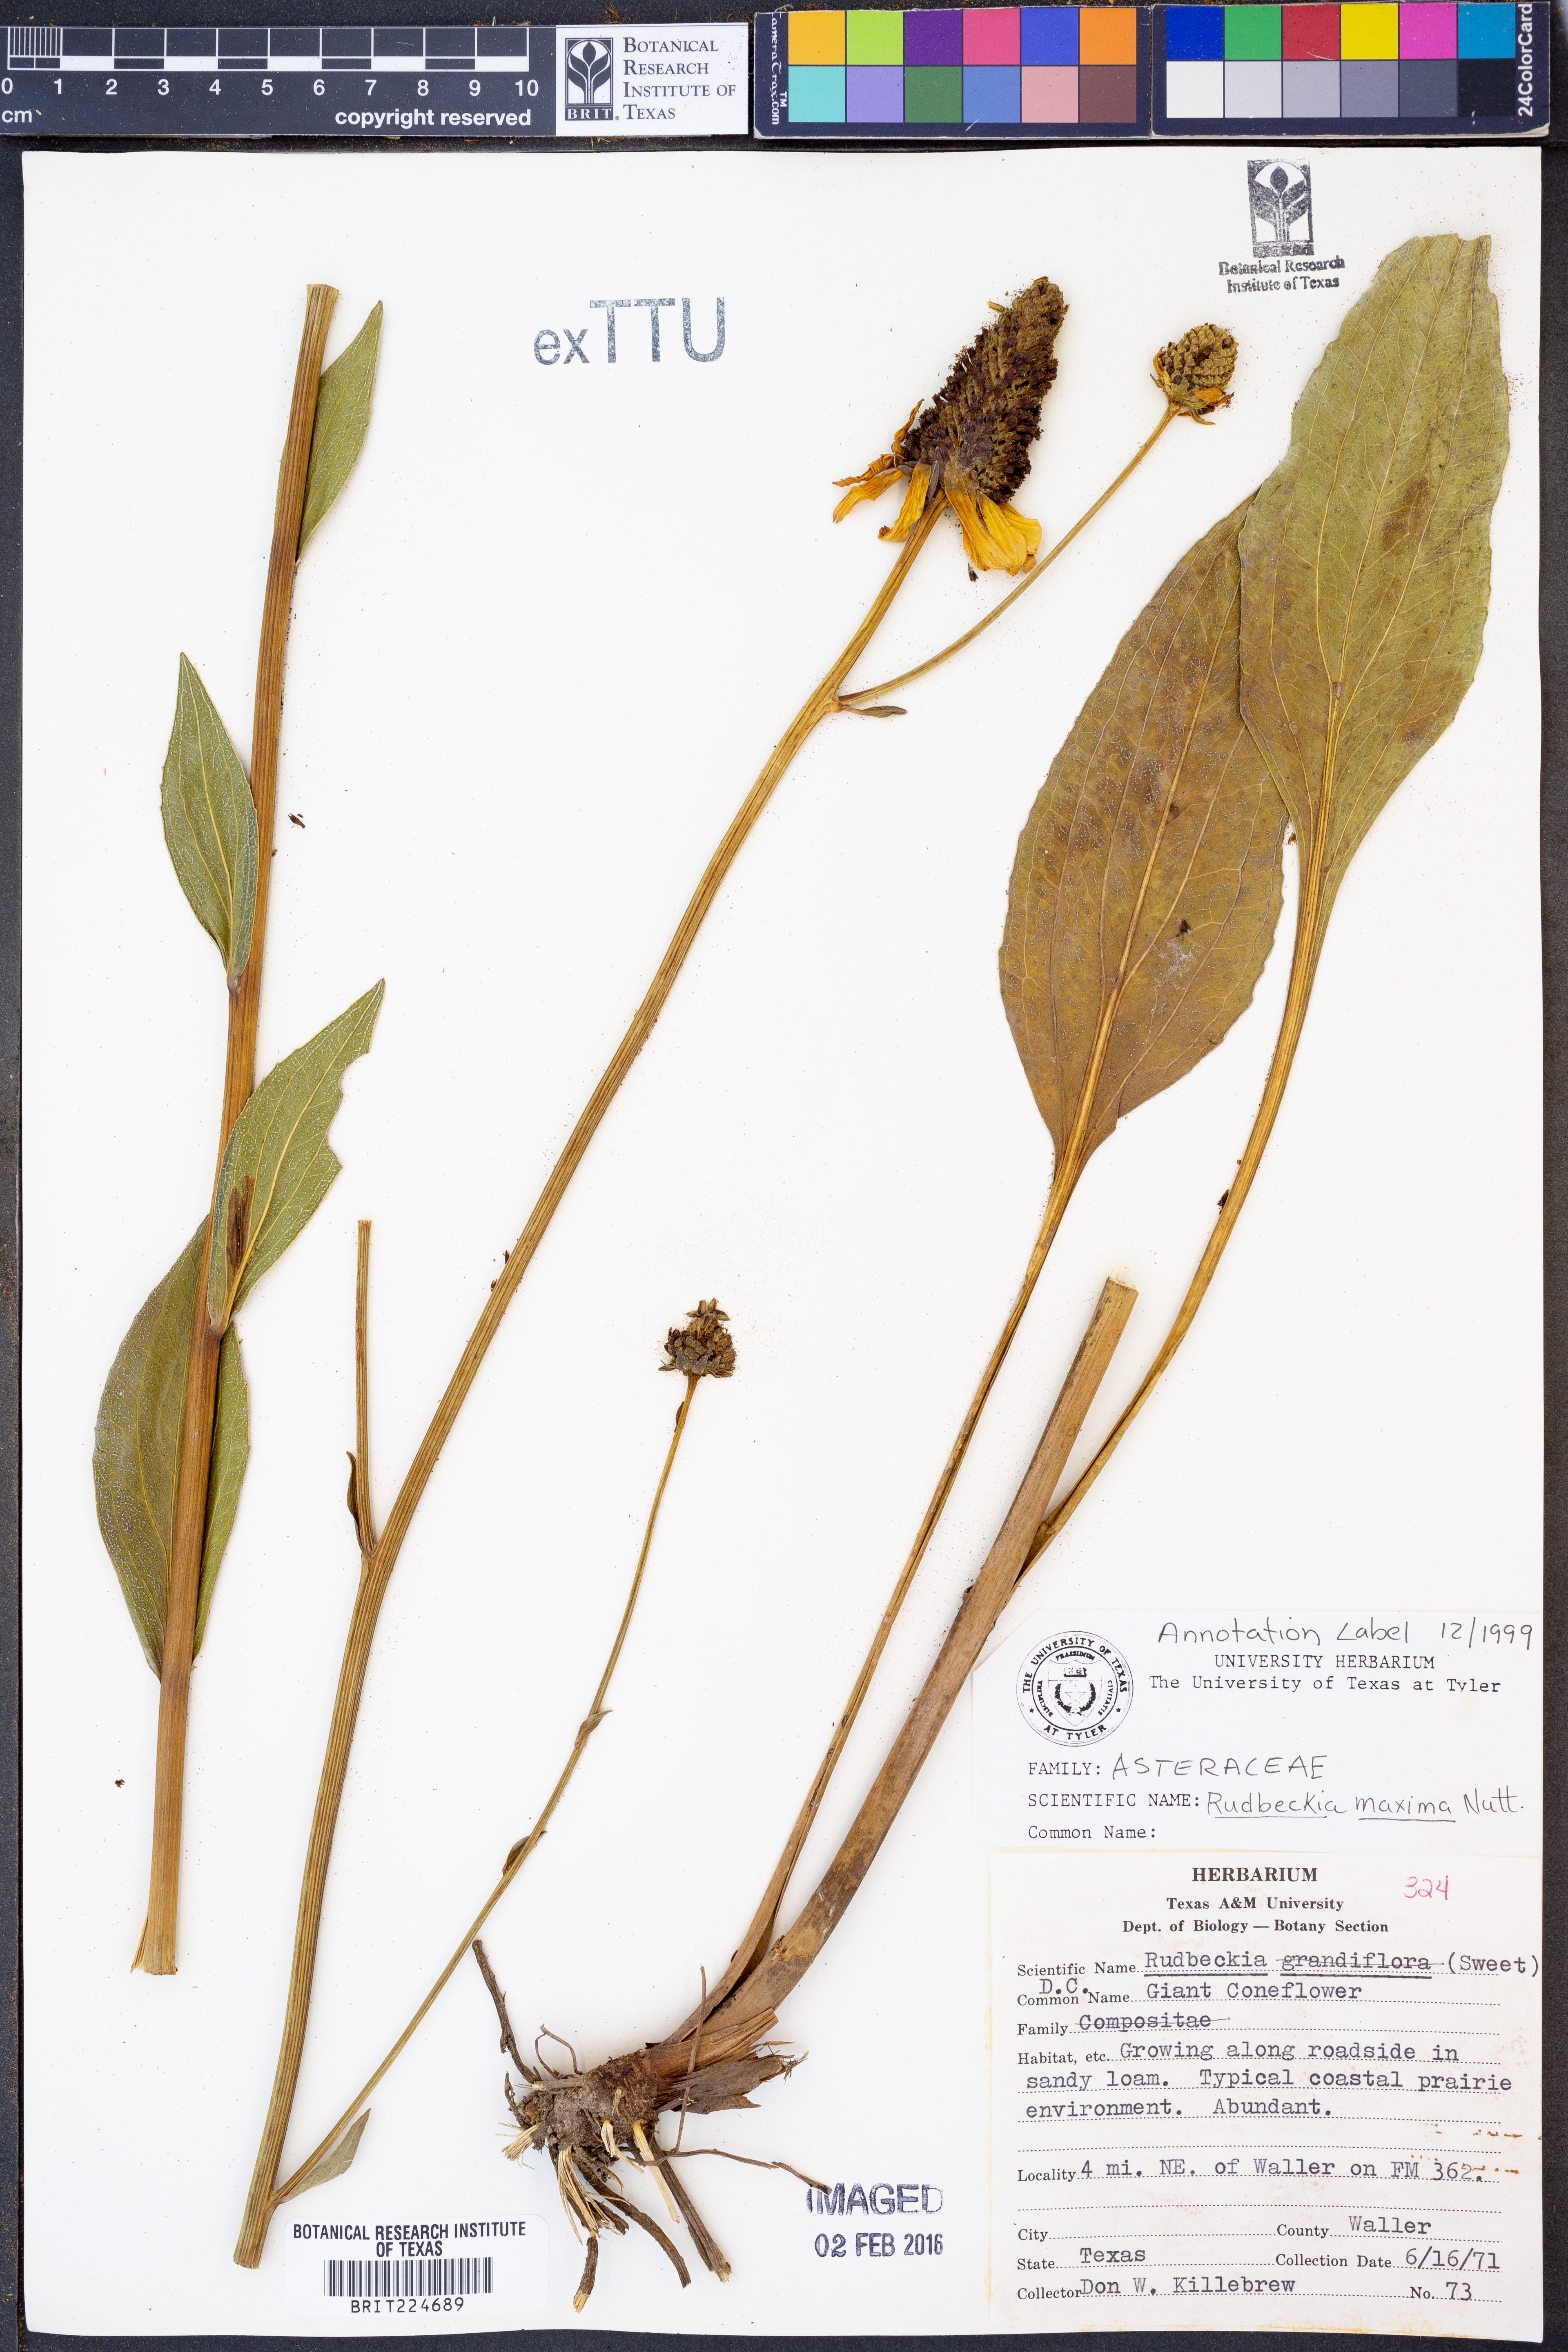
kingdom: Plantae
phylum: Tracheophyta
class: Magnoliopsida
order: Asterales
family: Asteraceae
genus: Rudbeckia
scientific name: Rudbeckia maxima
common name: Cabbage coneflower
